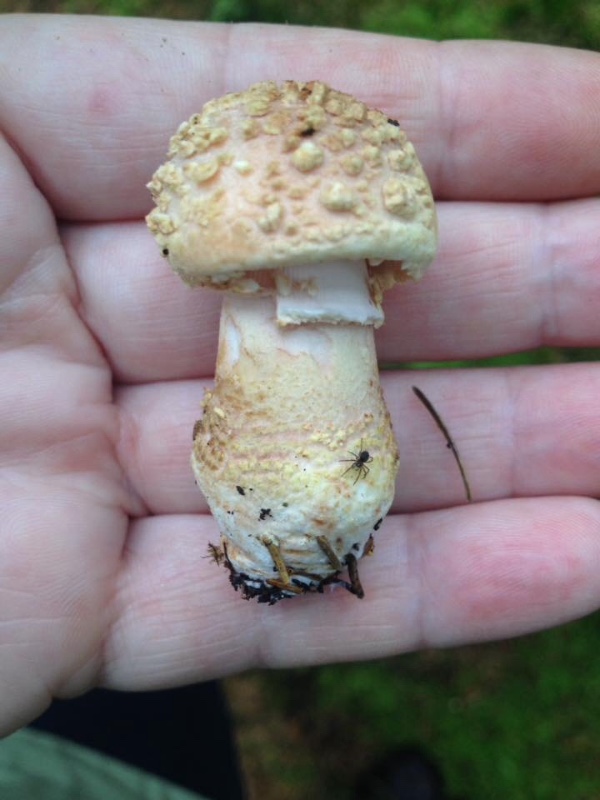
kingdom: Fungi
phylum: Basidiomycota
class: Agaricomycetes
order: Agaricales
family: Amanitaceae
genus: Amanita
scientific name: Amanita rubescens
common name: Blusher
